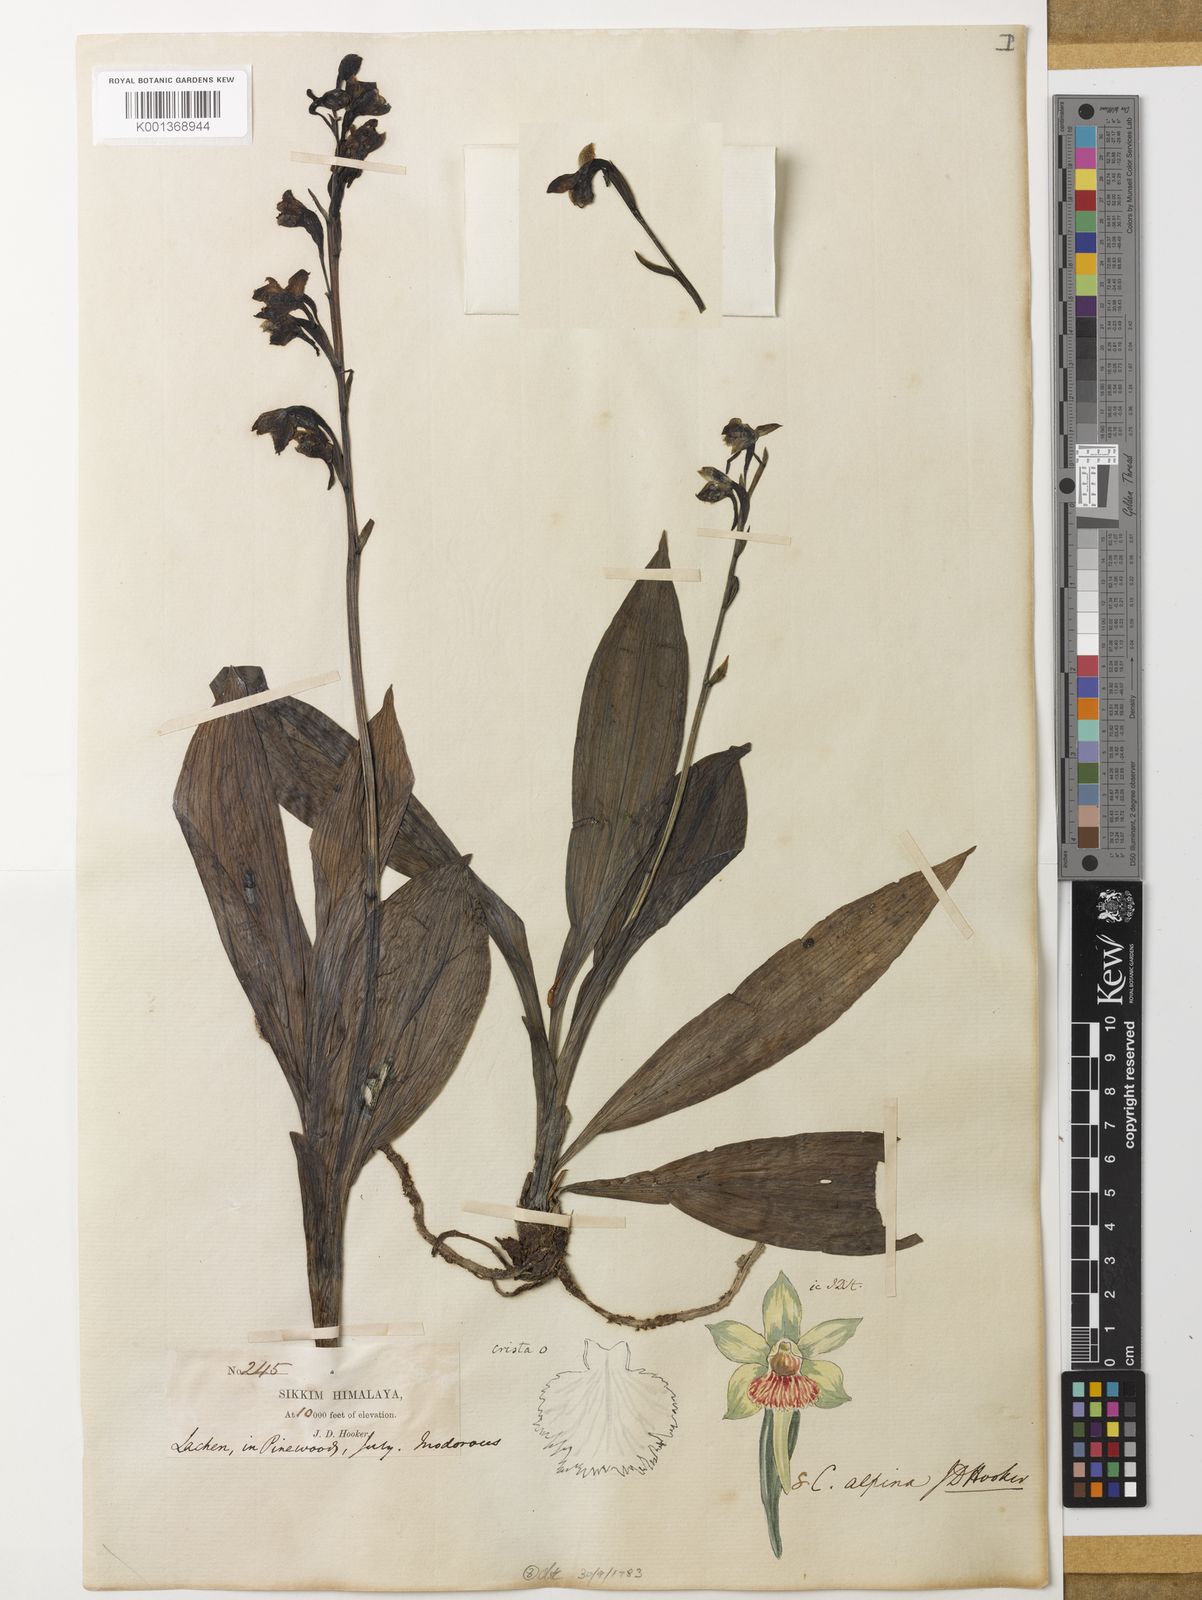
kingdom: Plantae
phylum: Tracheophyta
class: Liliopsida
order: Asparagales
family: Orchidaceae
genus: Calanthe
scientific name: Calanthe alpina
